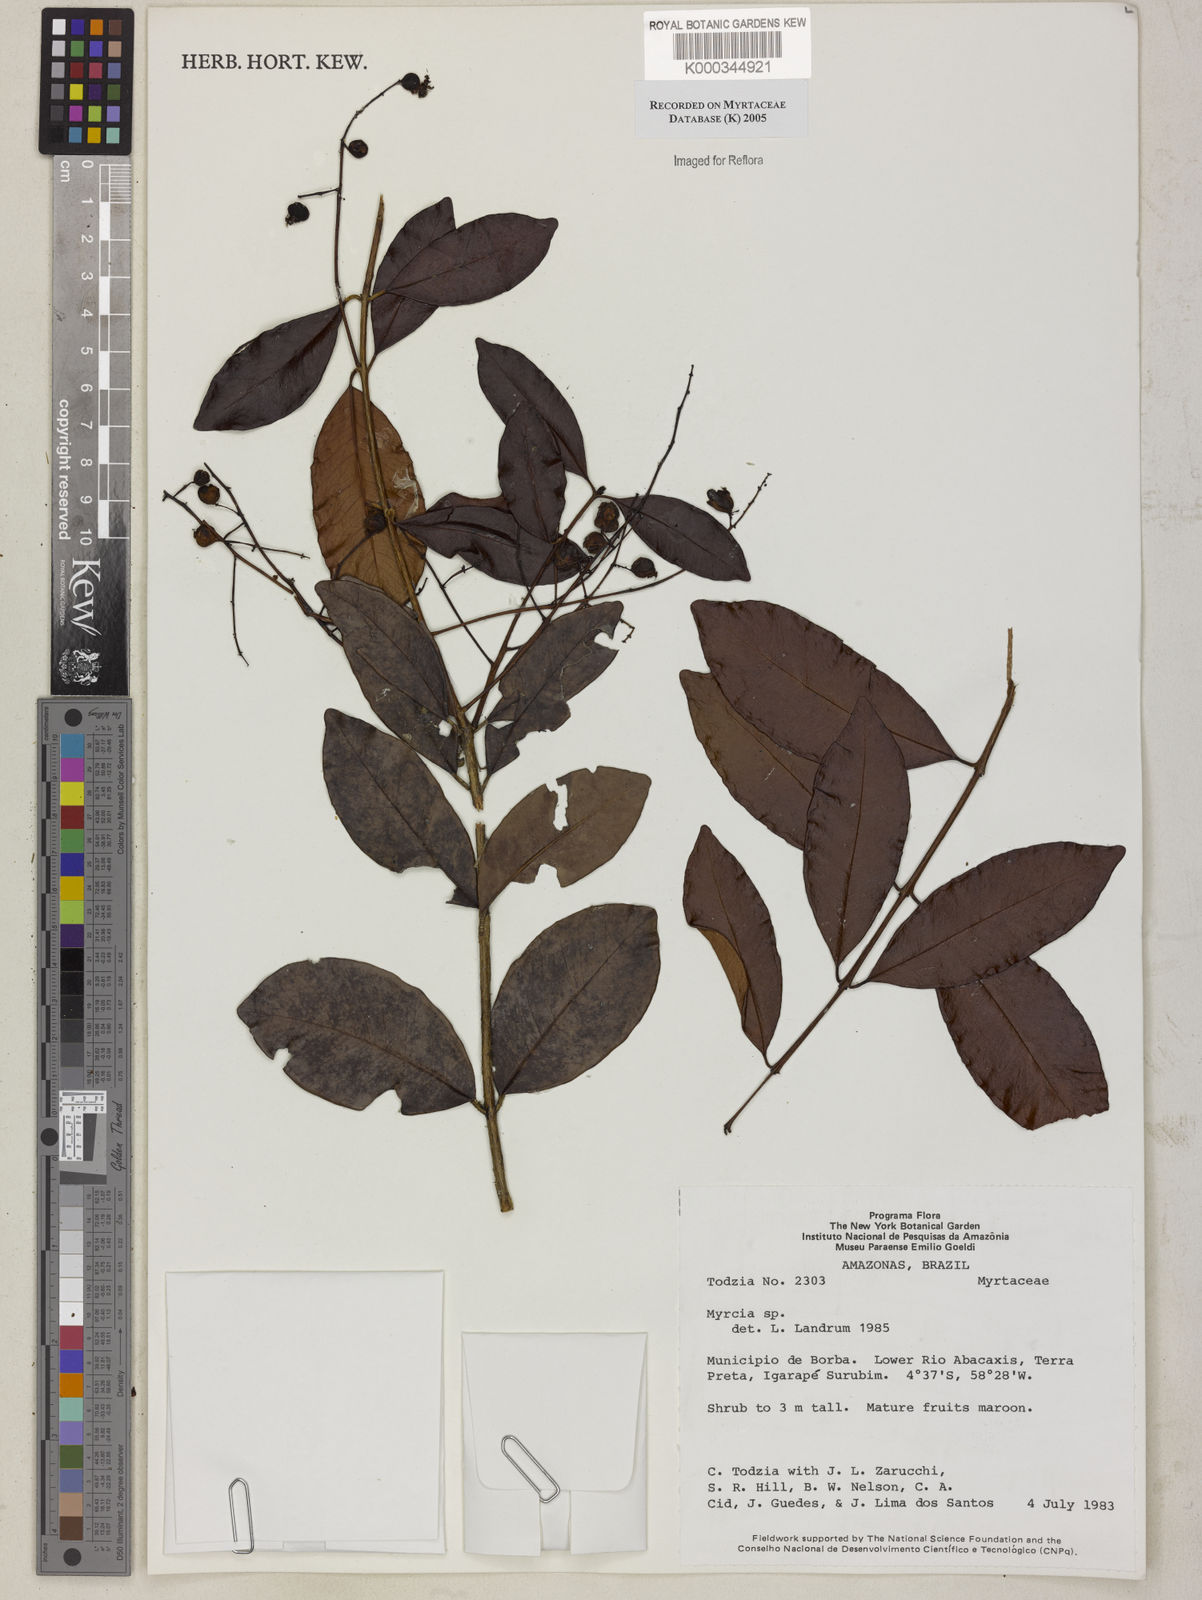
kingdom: Plantae
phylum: Tracheophyta
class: Magnoliopsida
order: Myrtales
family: Myrtaceae
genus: Myrcia
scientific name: Myrcia
